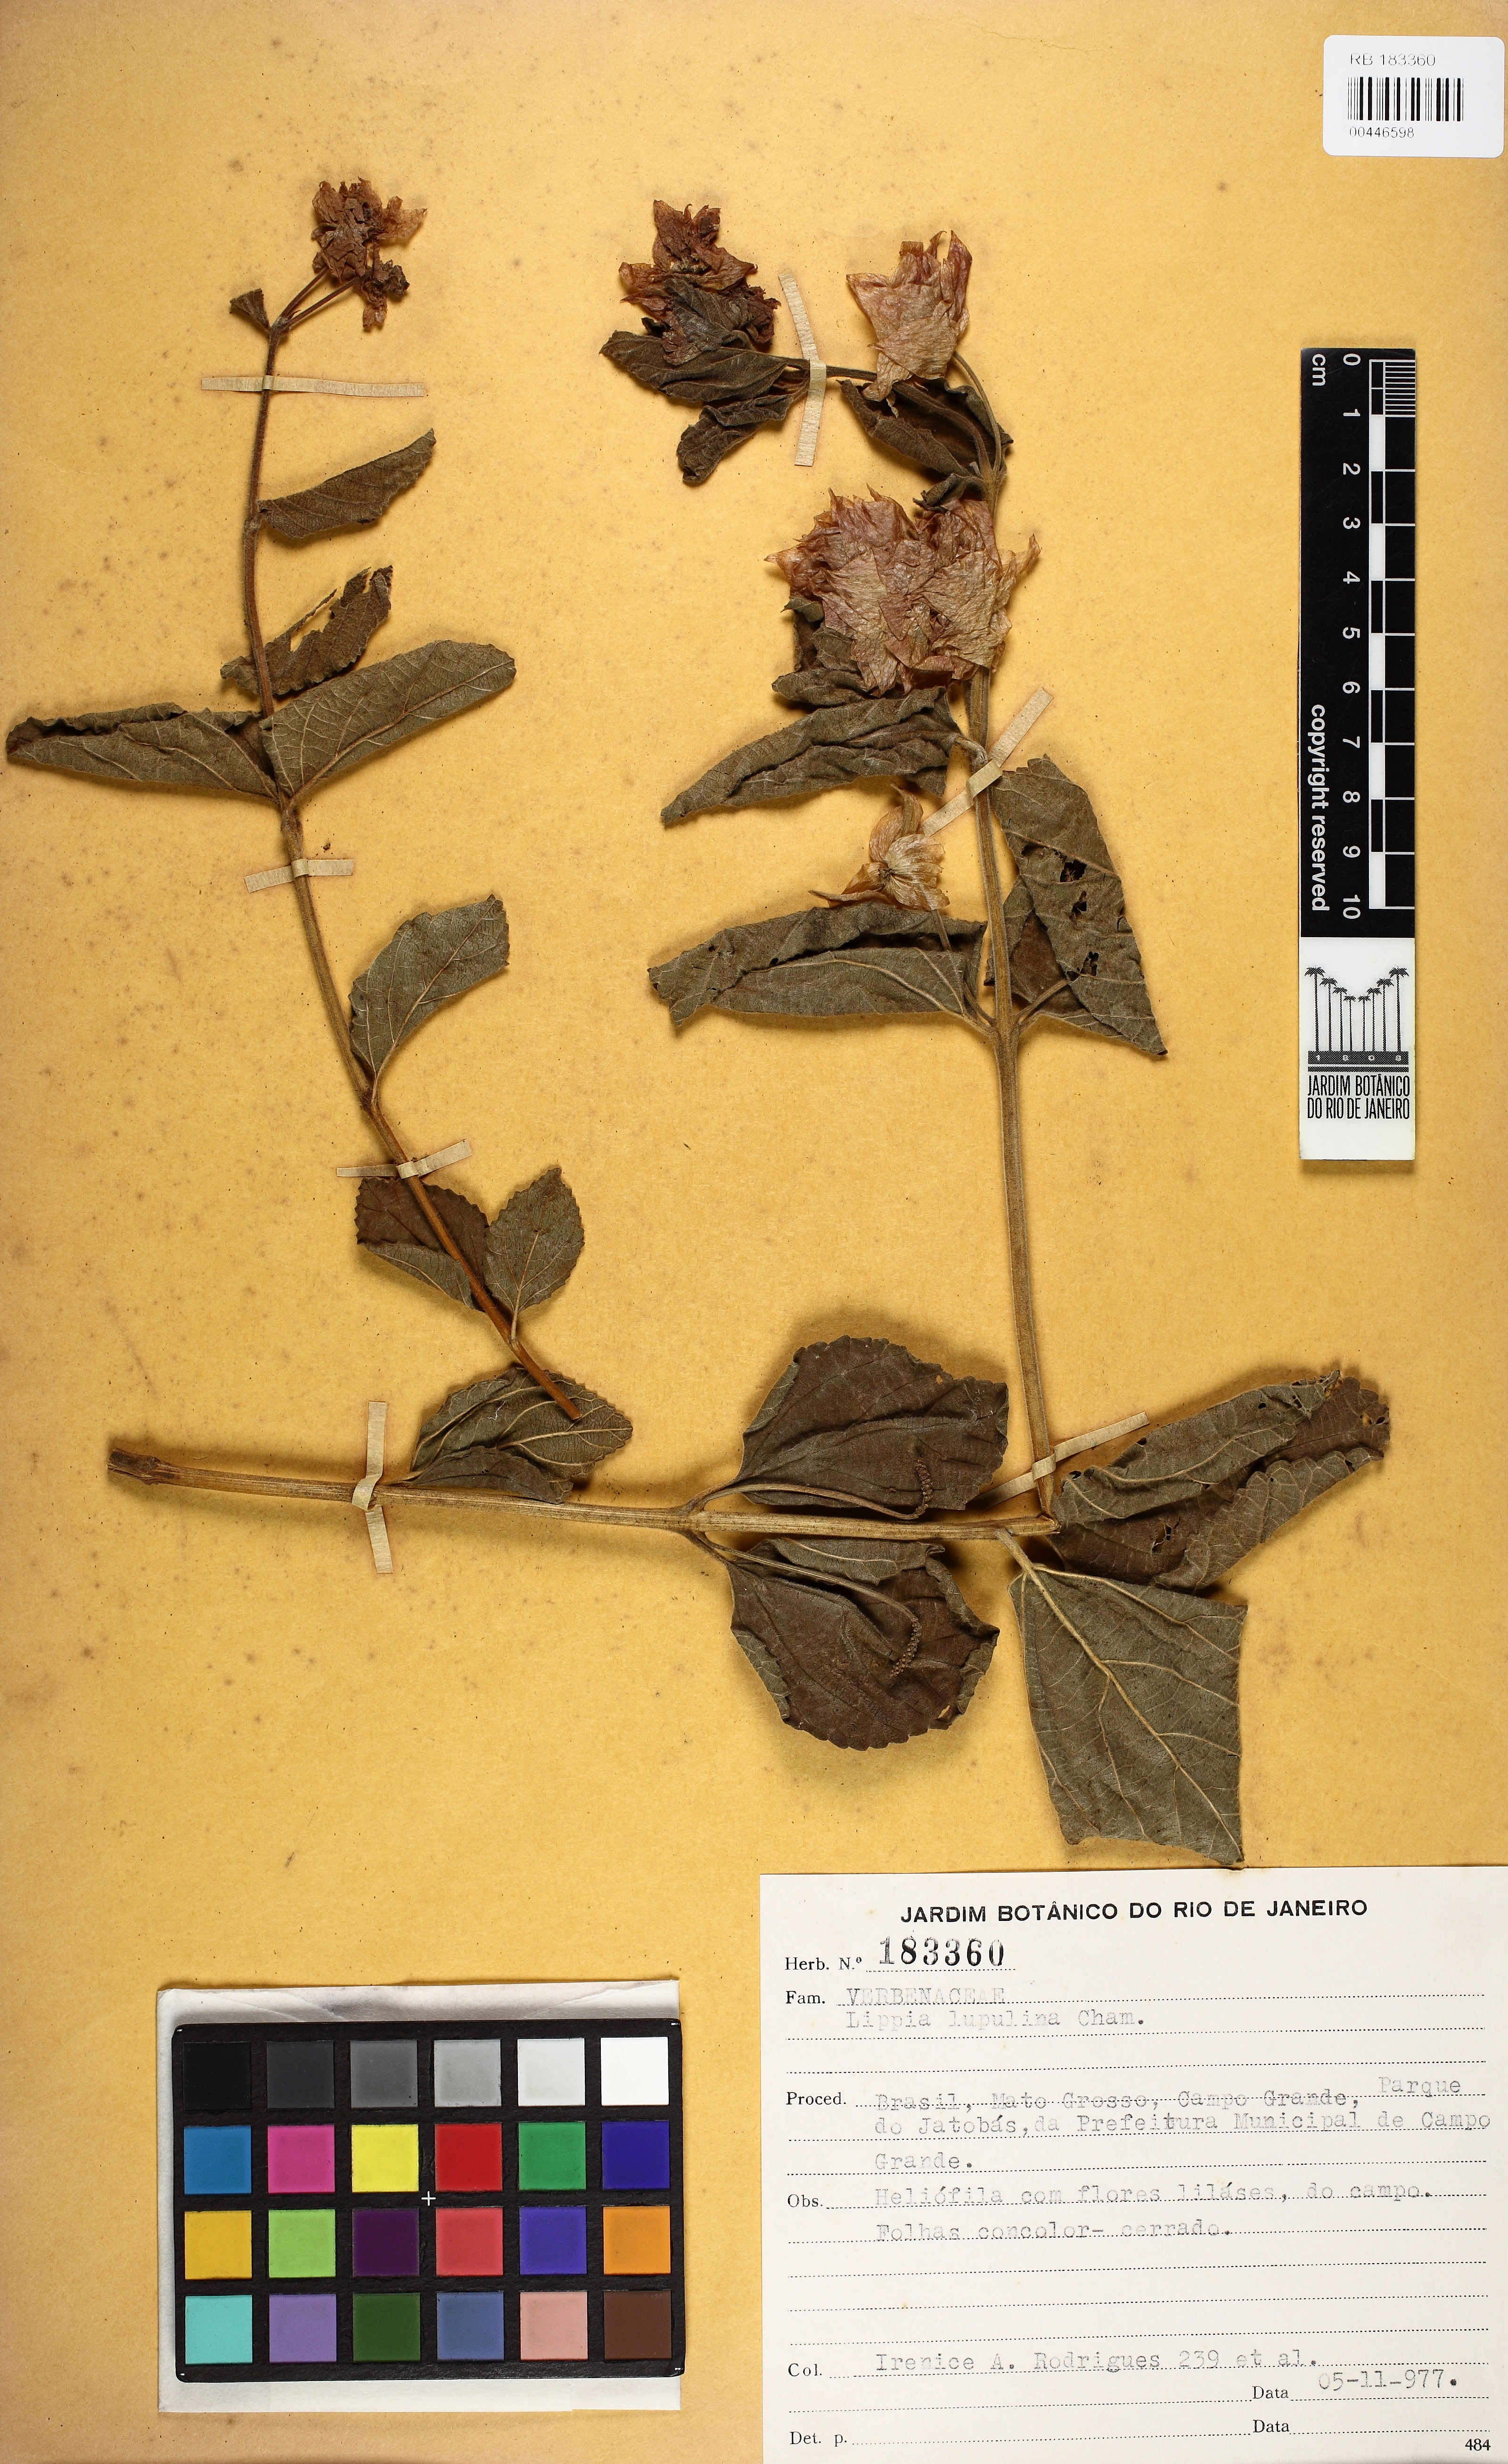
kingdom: Plantae
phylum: Tracheophyta
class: Magnoliopsida
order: Lamiales
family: Verbenaceae
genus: Lippia
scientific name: Lippia lupulina
